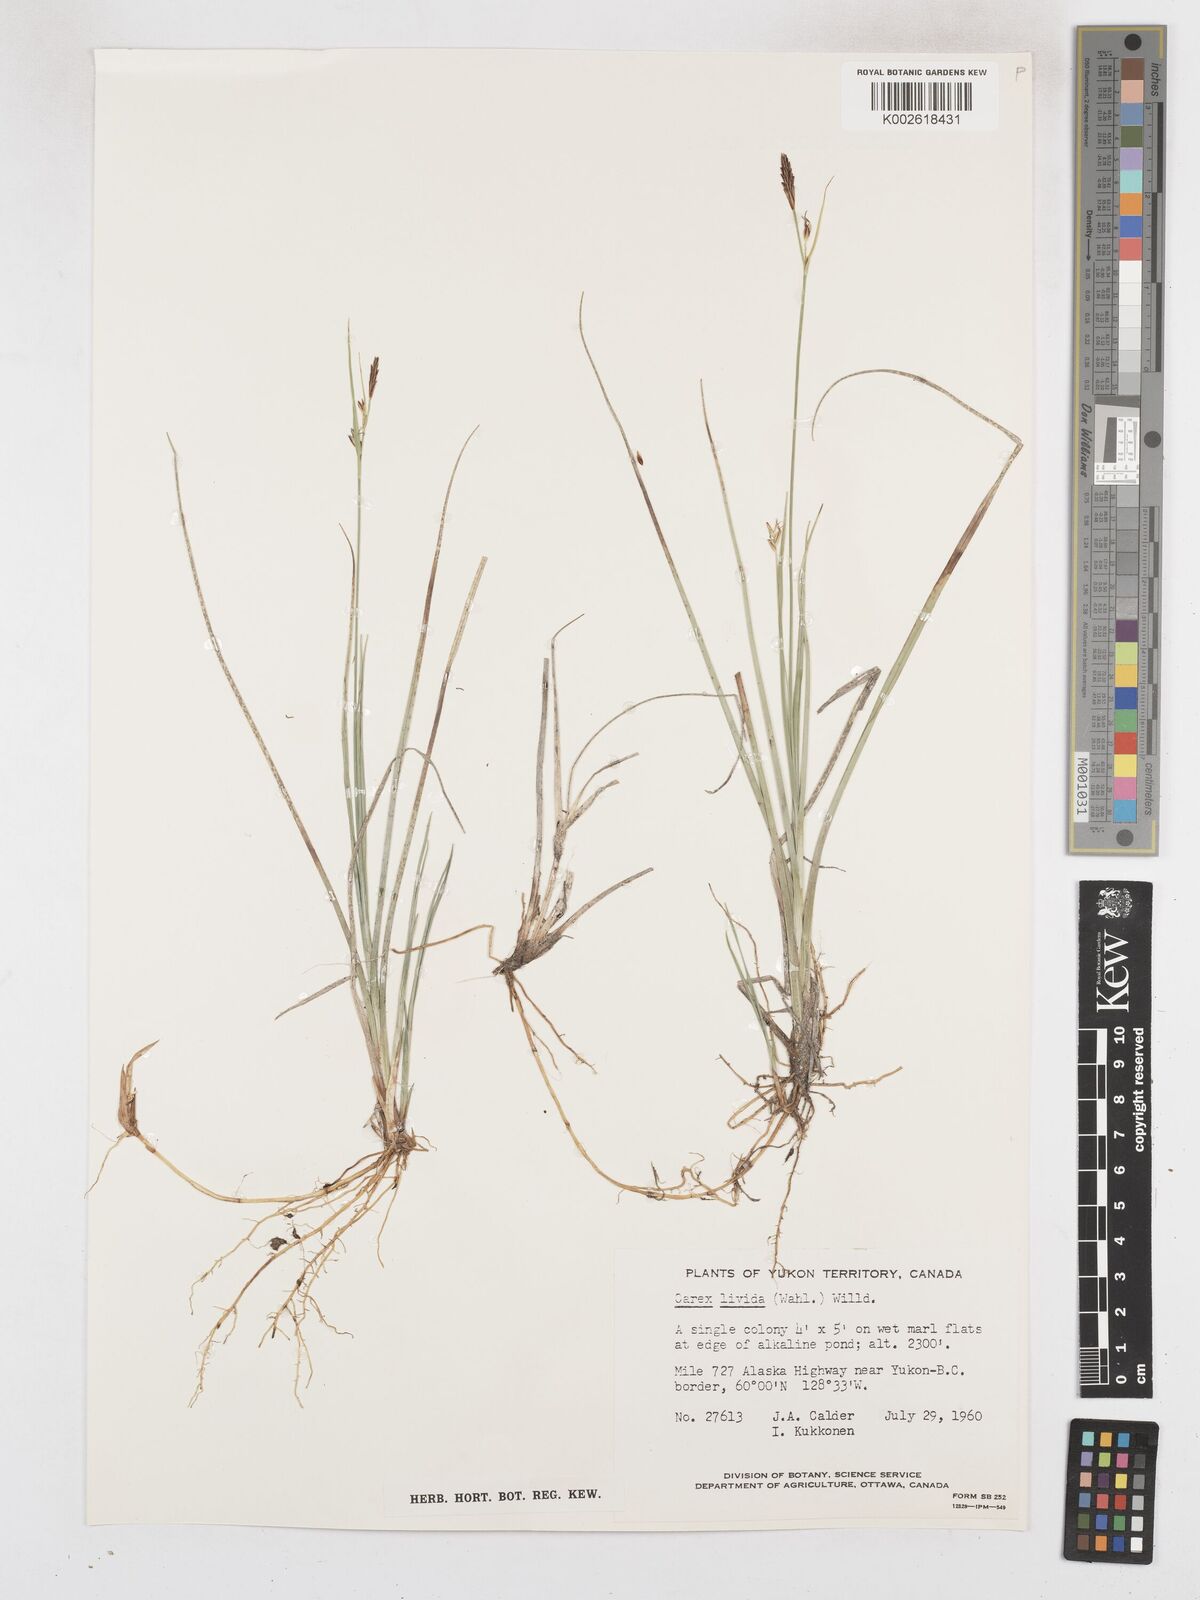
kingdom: Plantae
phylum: Tracheophyta
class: Liliopsida
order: Poales
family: Cyperaceae
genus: Carex
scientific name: Carex livida
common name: Livid sedge
